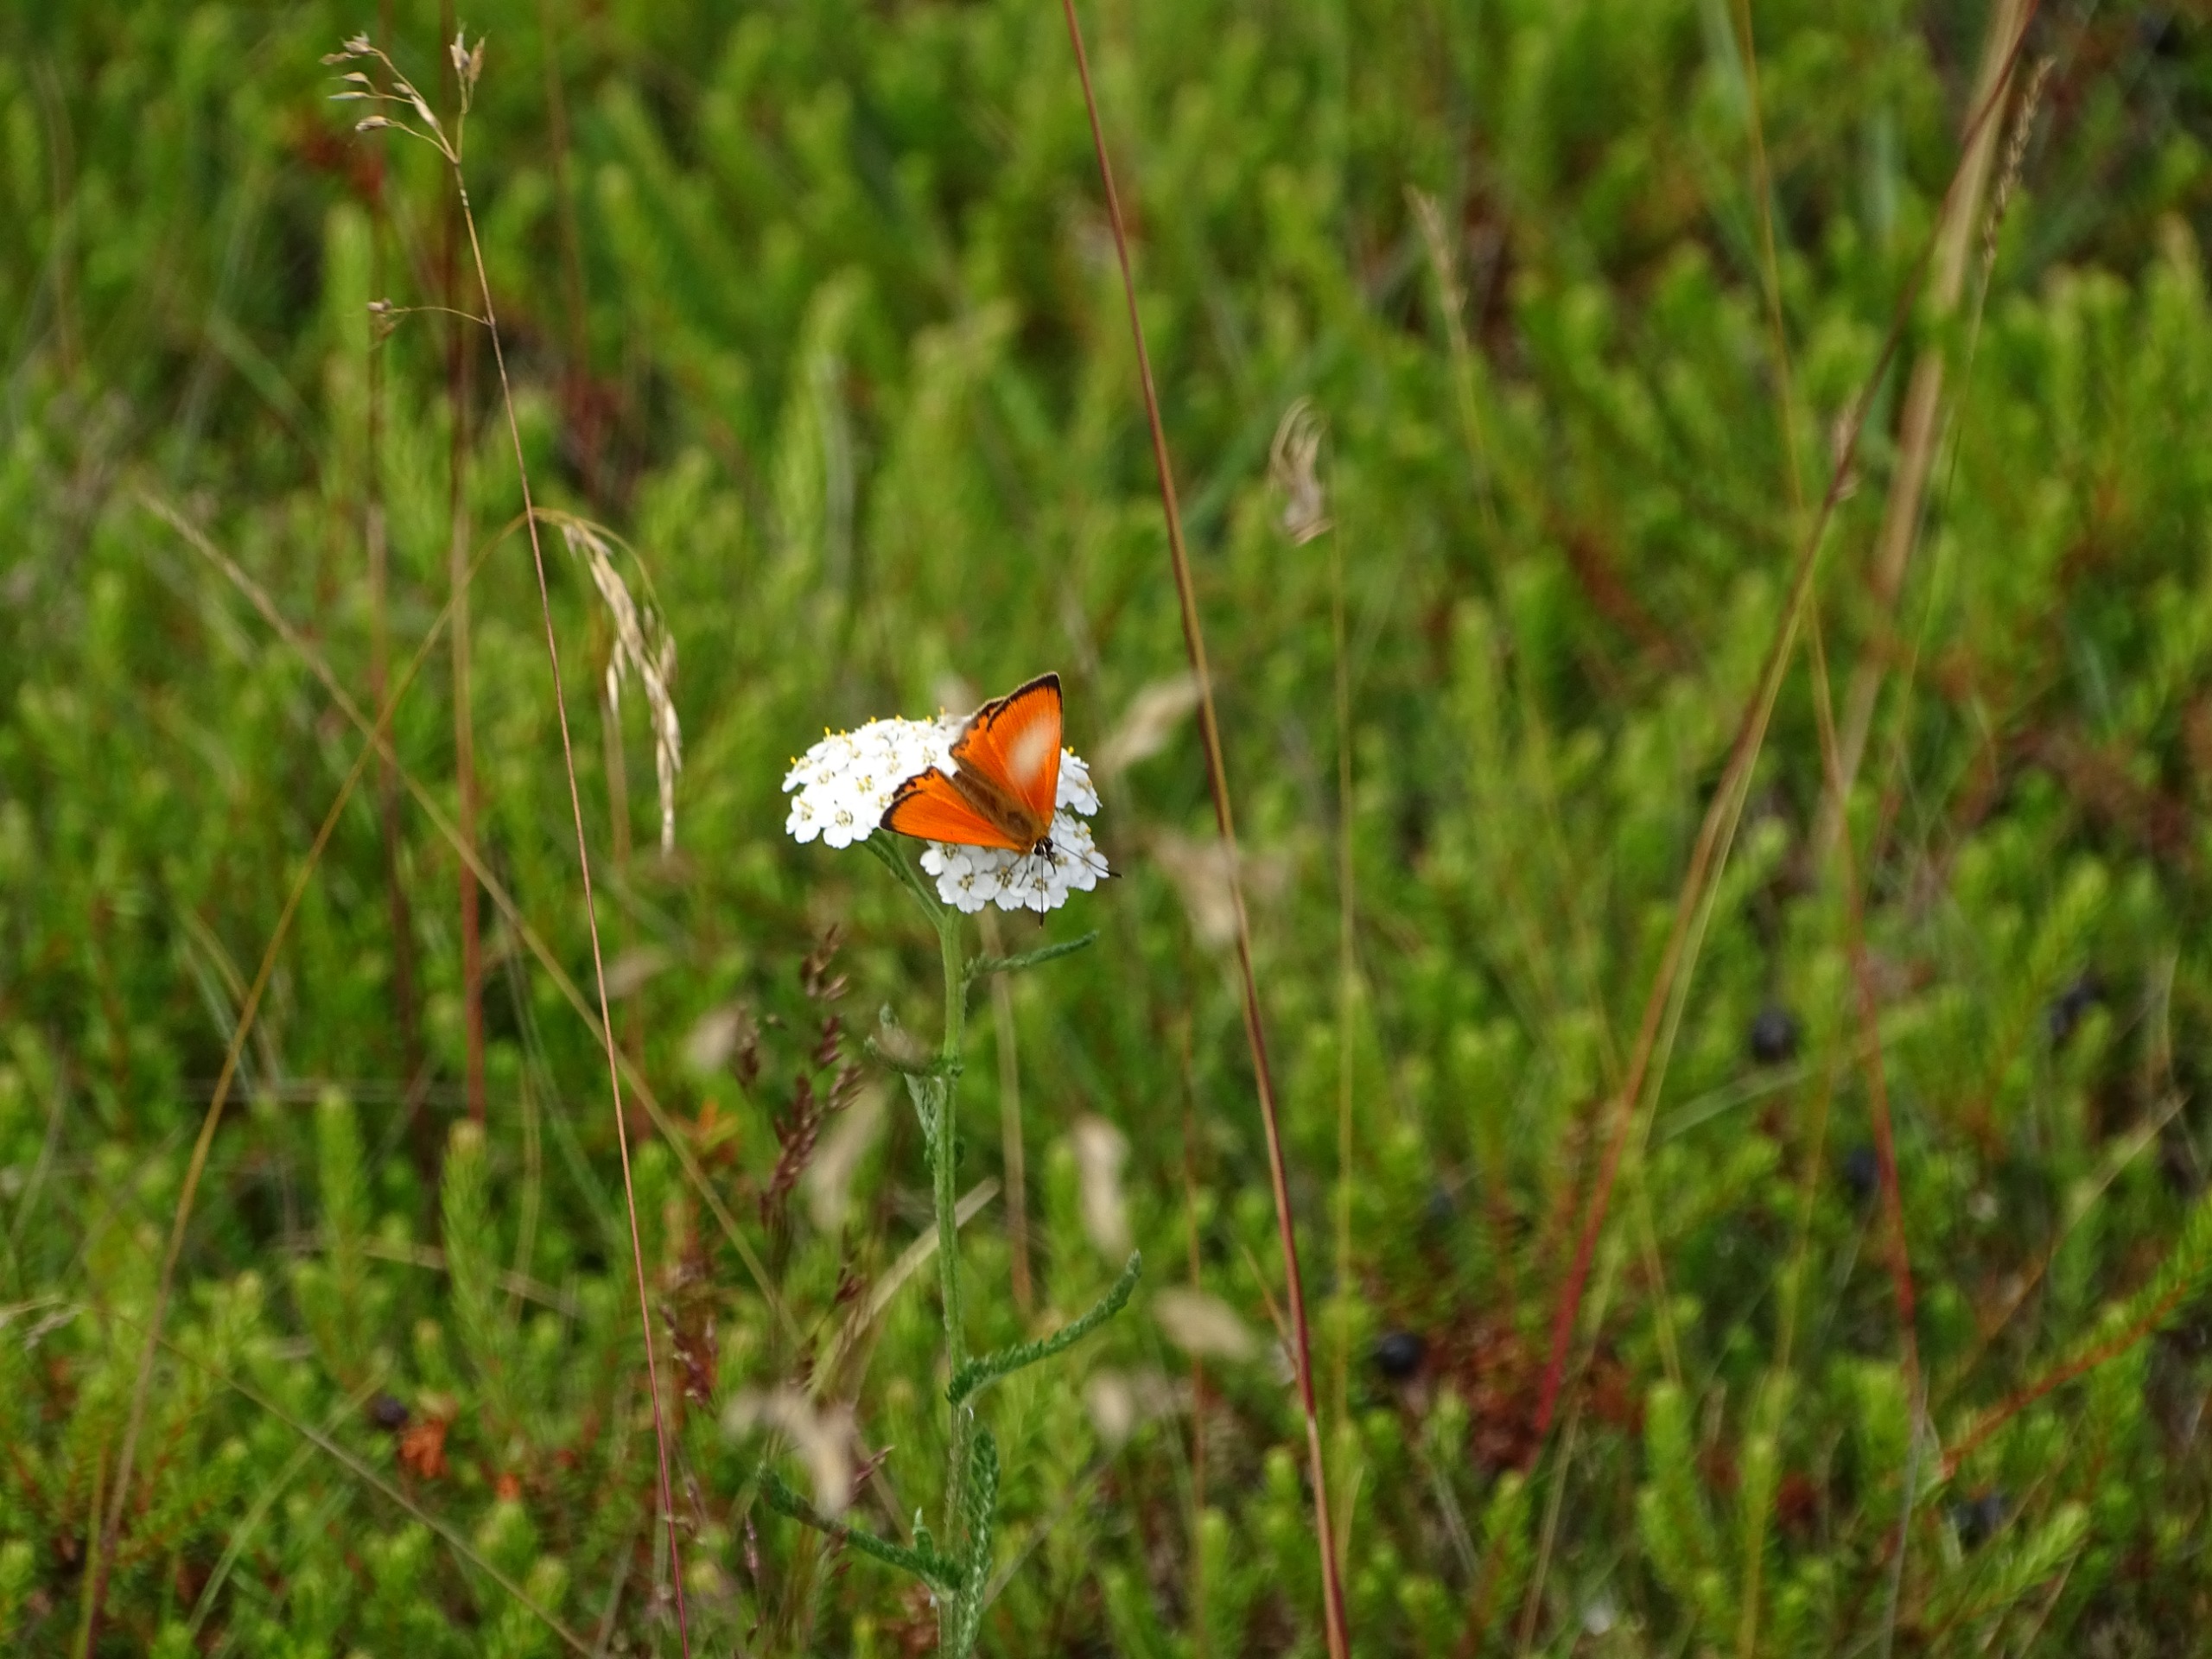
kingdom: Animalia
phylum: Arthropoda
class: Insecta
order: Lepidoptera
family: Lycaenidae
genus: Lycaena
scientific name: Lycaena virgaureae
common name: Dukatsommerfugl
